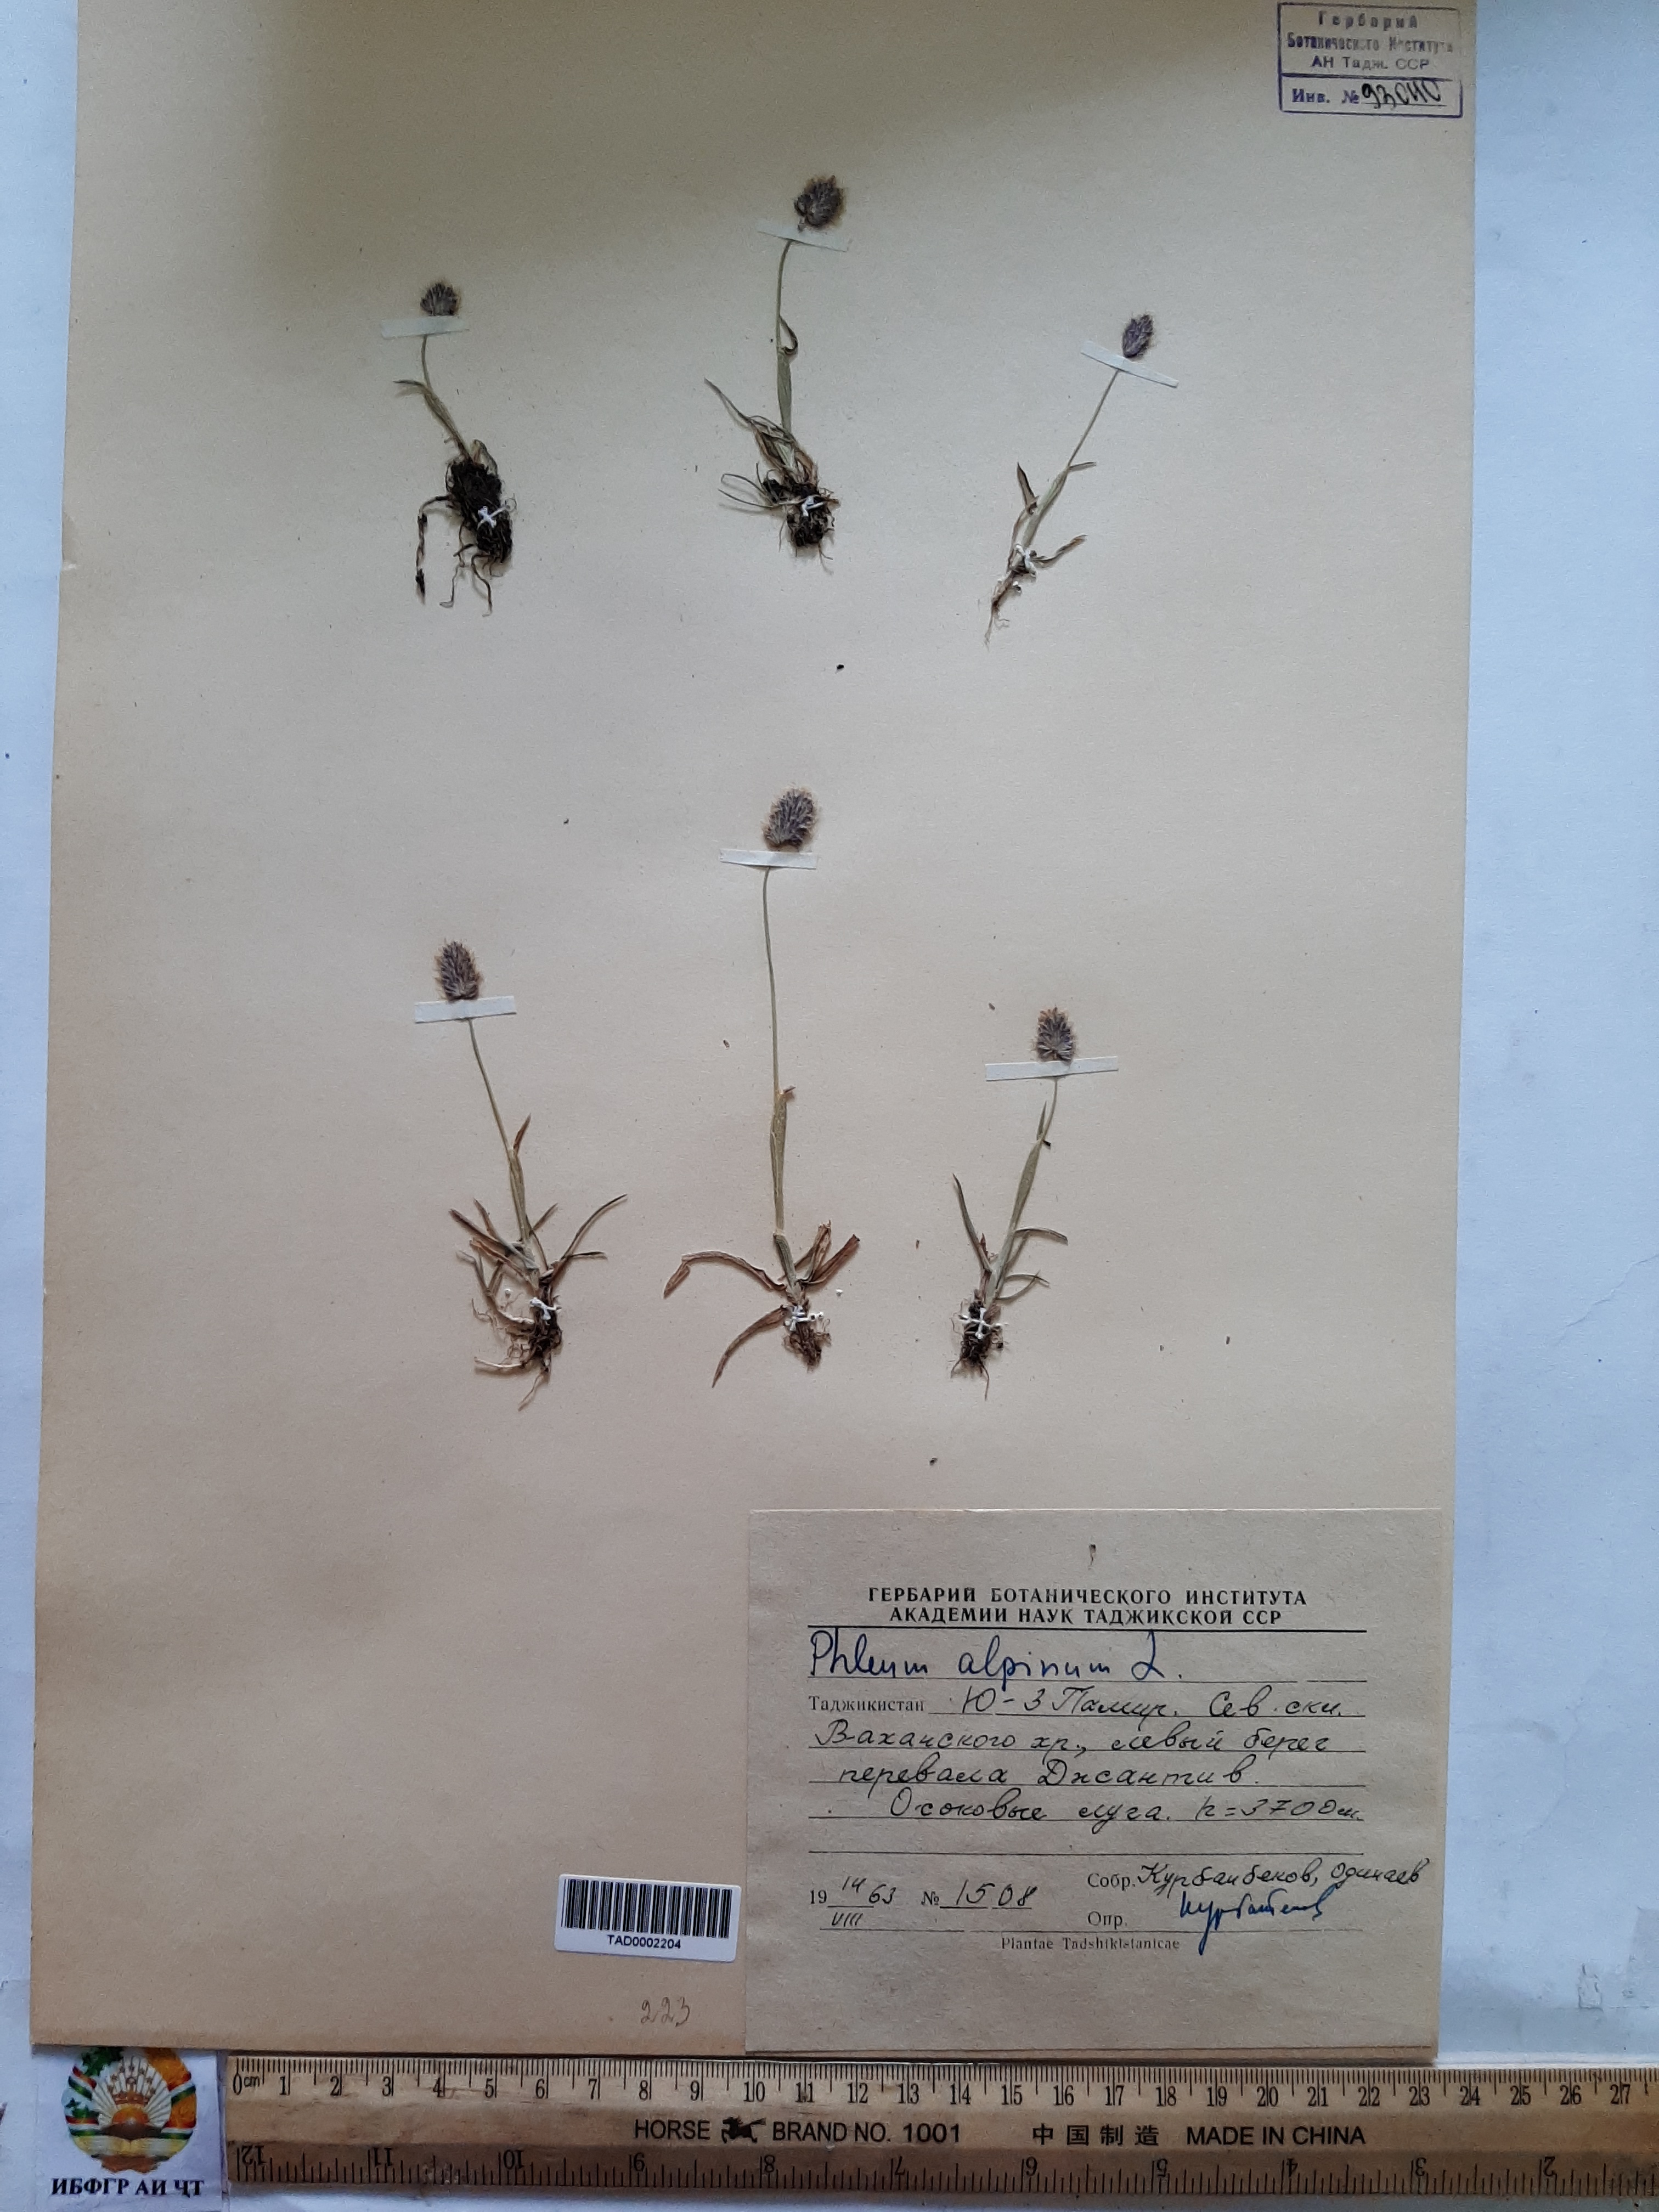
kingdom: Plantae
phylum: Tracheophyta
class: Liliopsida
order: Poales
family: Poaceae
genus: Phleum
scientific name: Phleum alpinum
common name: Alpine cat's-tail
